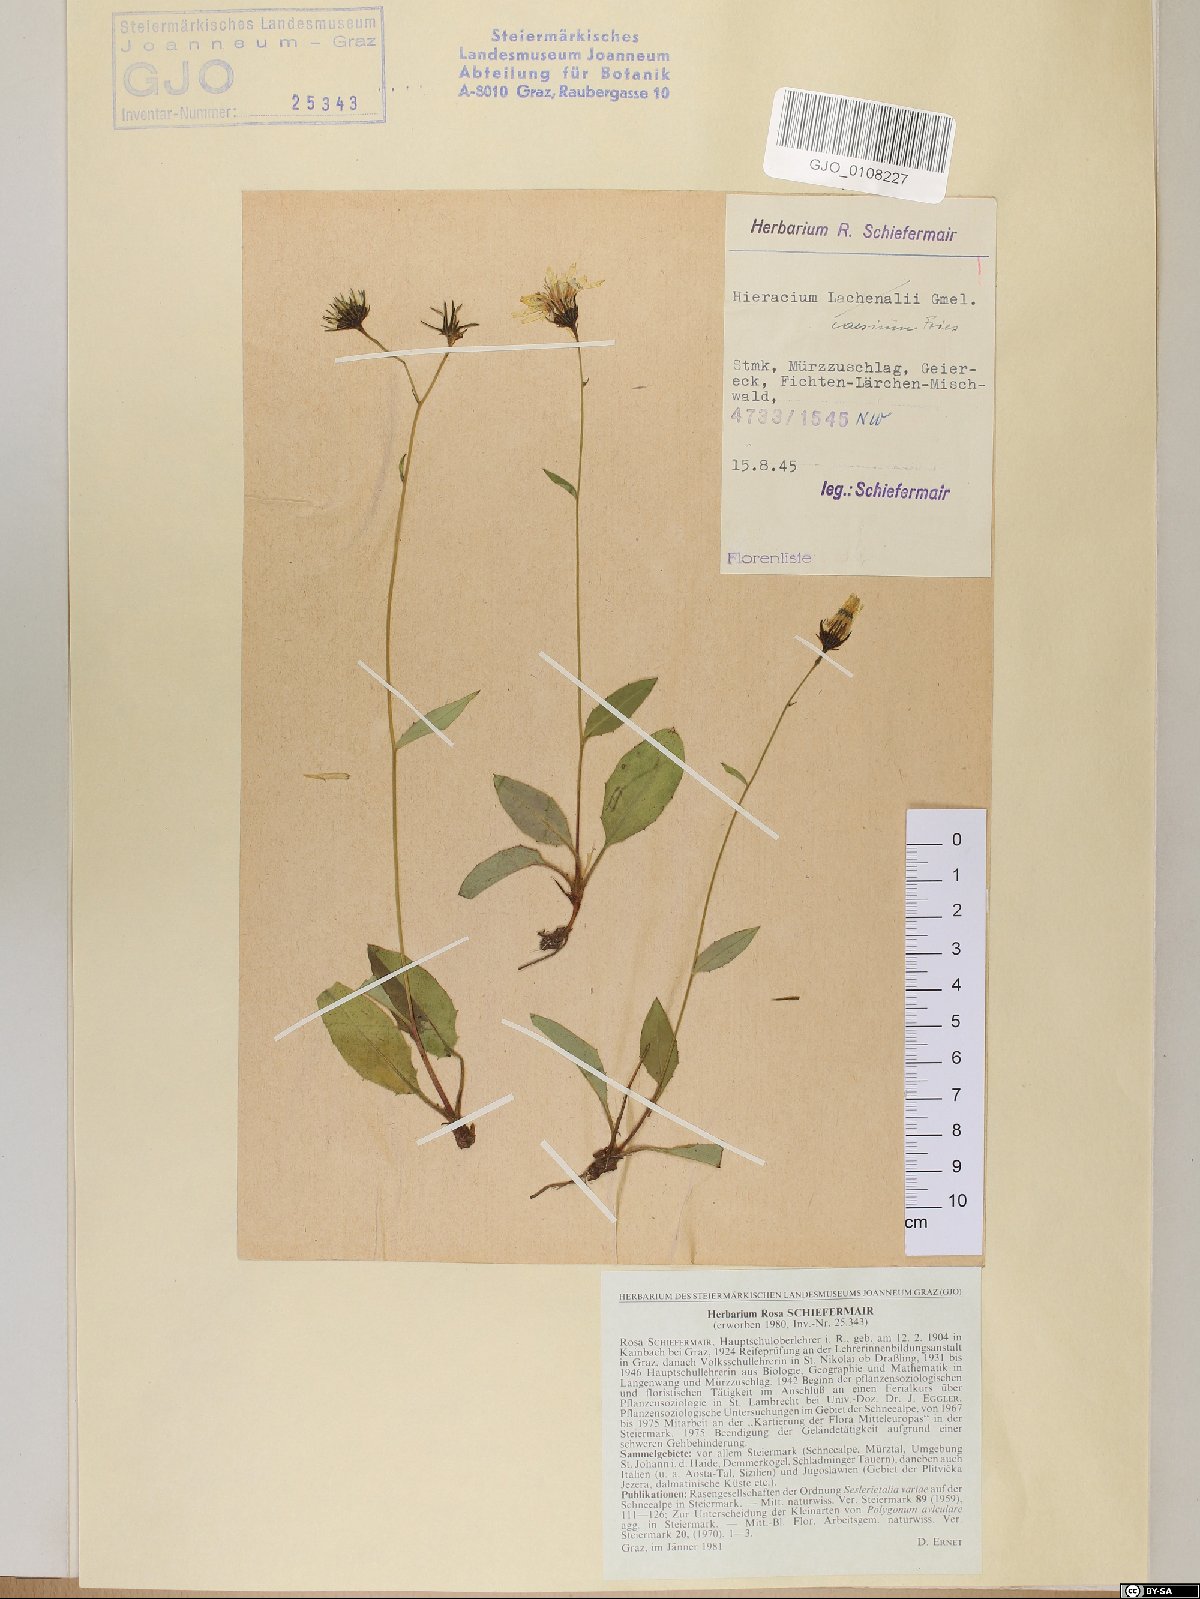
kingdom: Plantae
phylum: Tracheophyta
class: Magnoliopsida
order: Asterales
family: Asteraceae
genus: Hieracium
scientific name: Hieracium caesium
